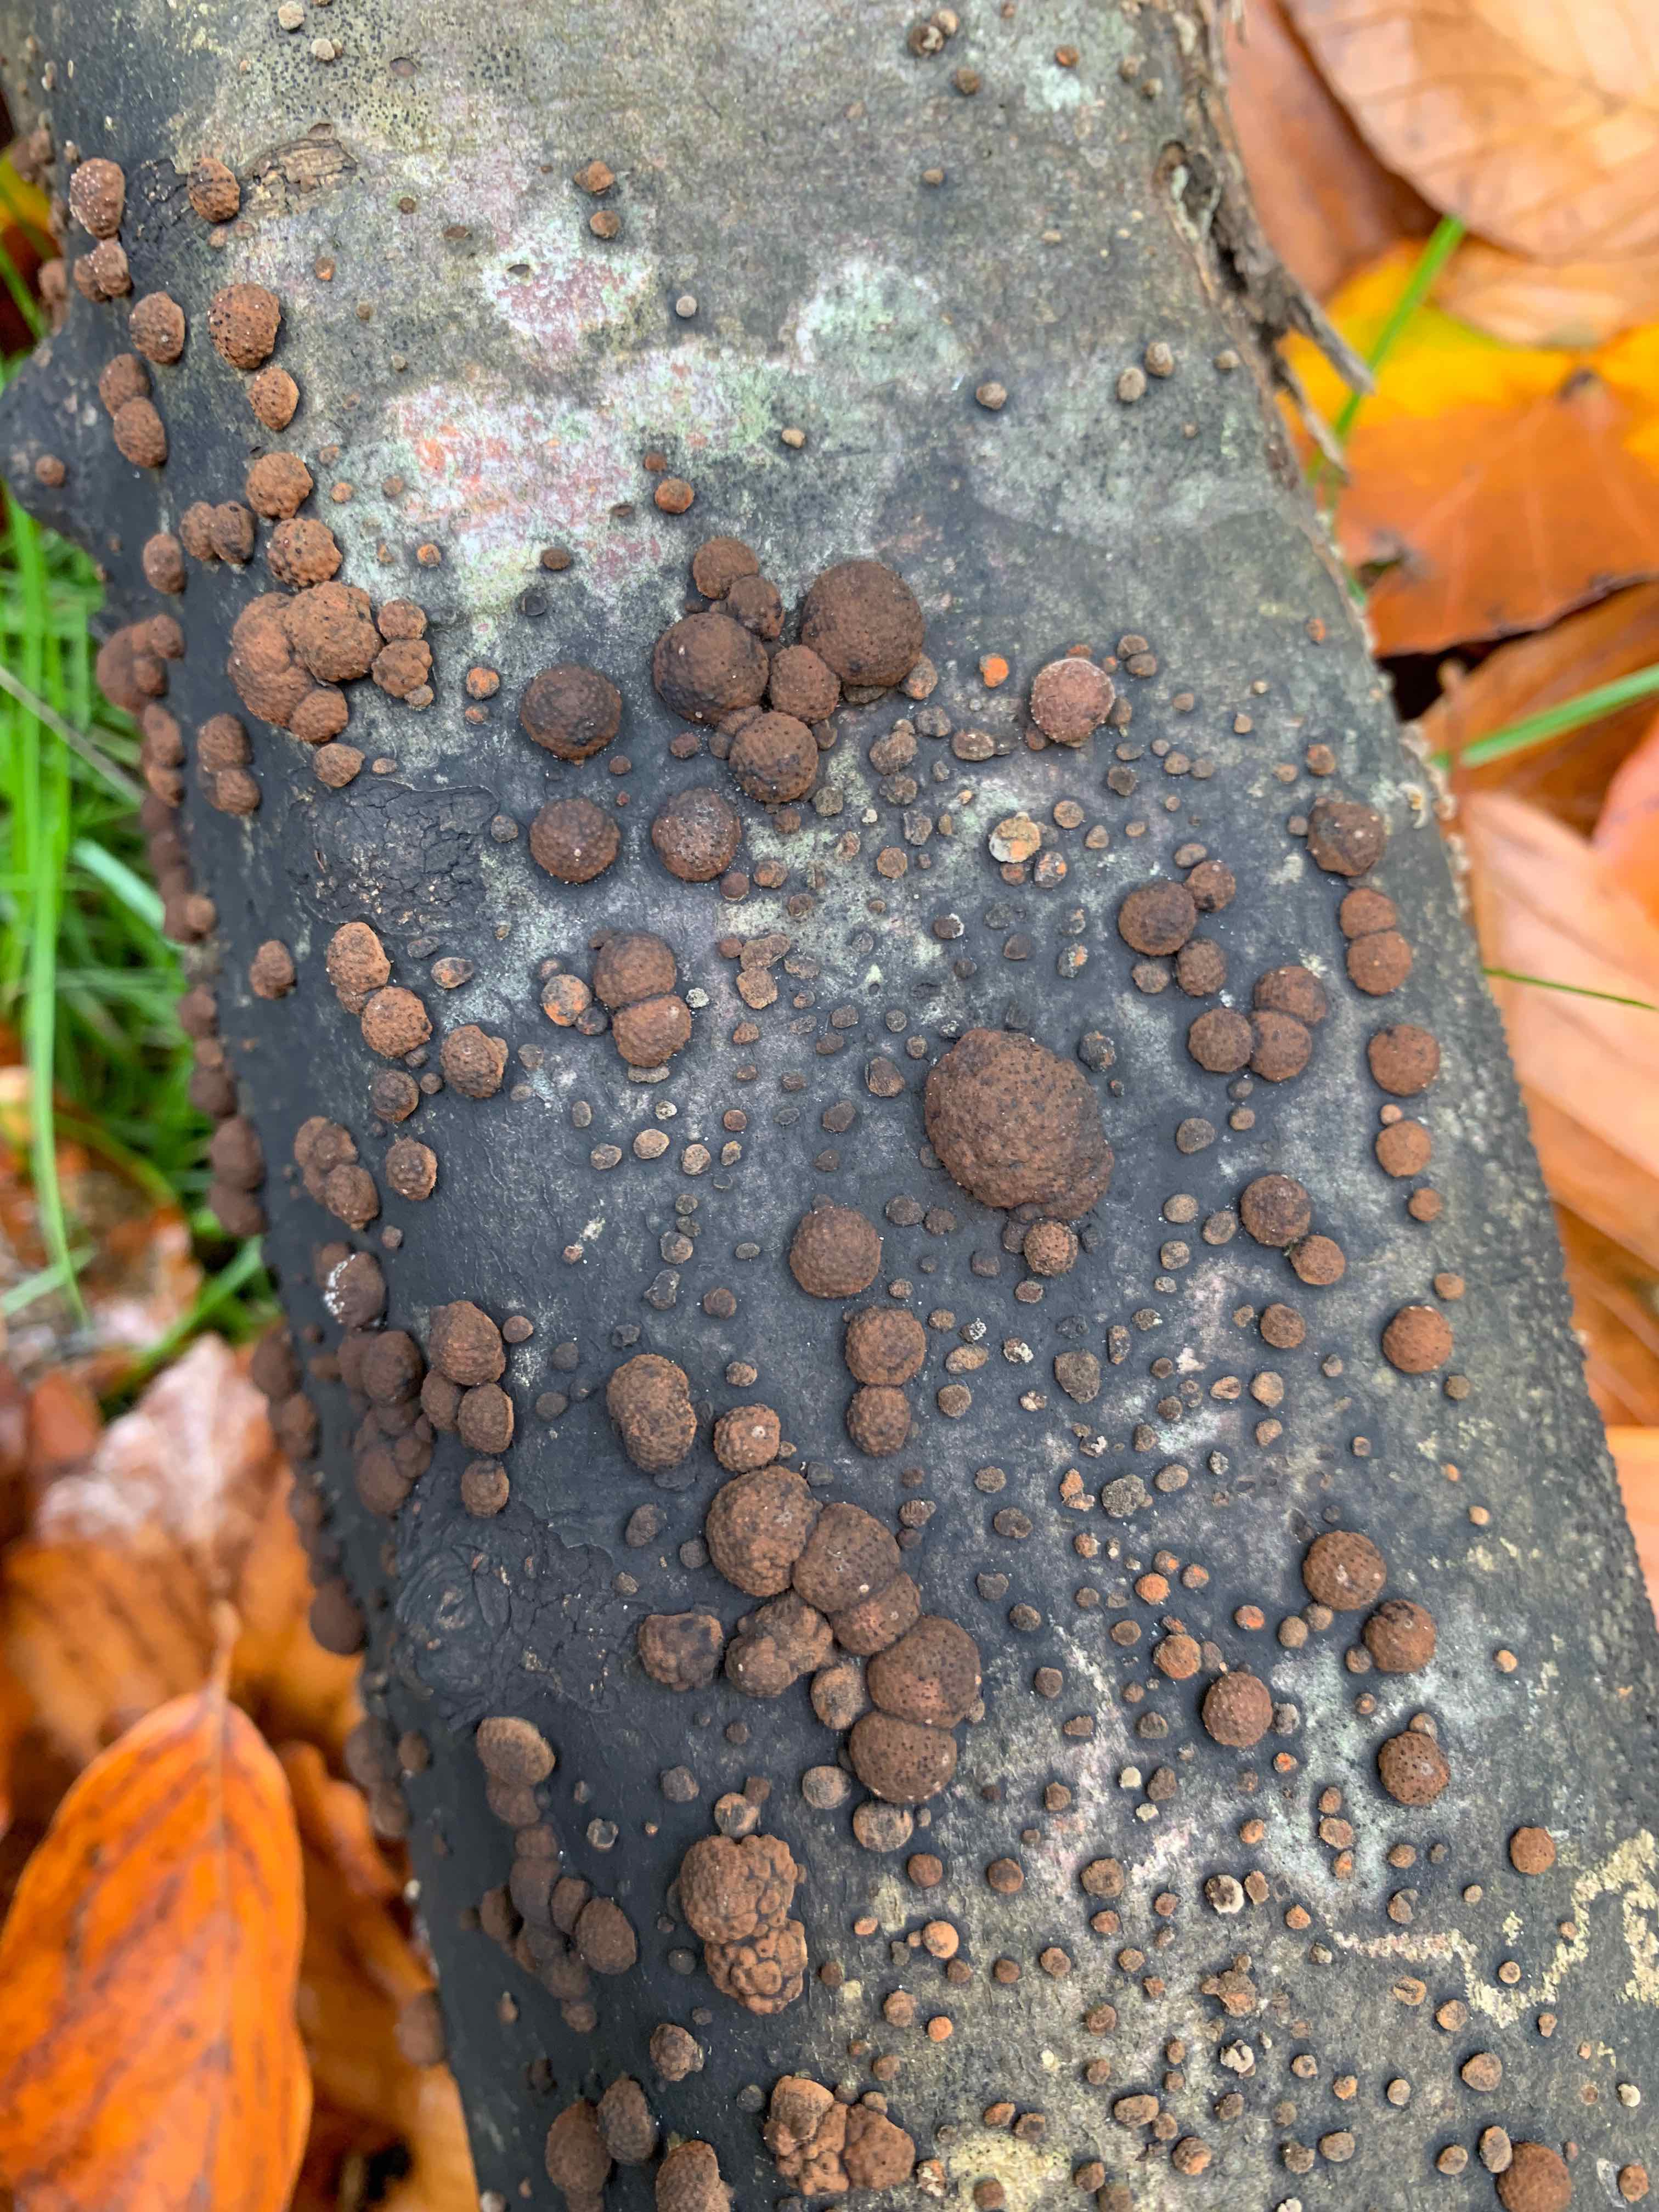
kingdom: Fungi
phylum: Ascomycota
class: Sordariomycetes
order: Xylariales
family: Hypoxylaceae
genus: Hypoxylon
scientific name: Hypoxylon fragiforme
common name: kuljordbær
